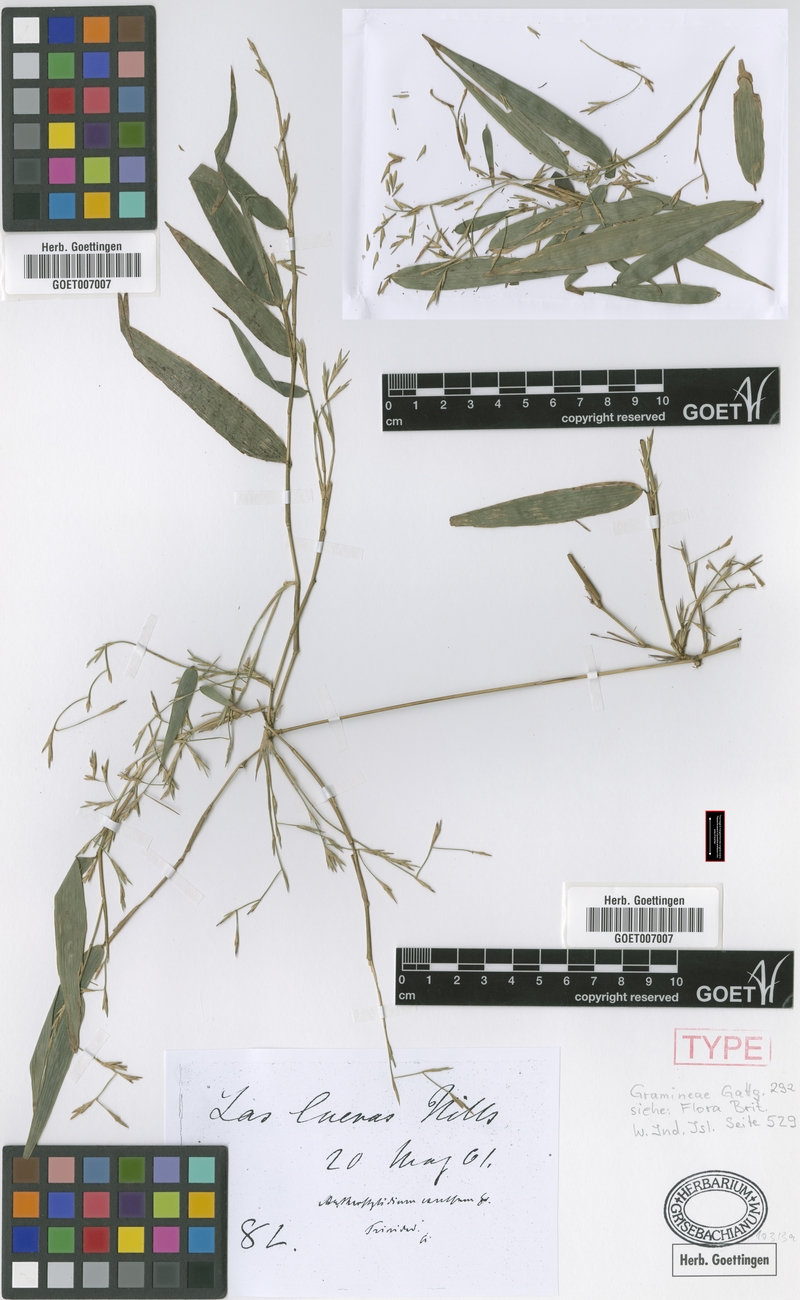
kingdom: Plantae
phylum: Tracheophyta
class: Liliopsida
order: Poales
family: Poaceae
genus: Arthrostylidium
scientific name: Arthrostylidium excelsum
